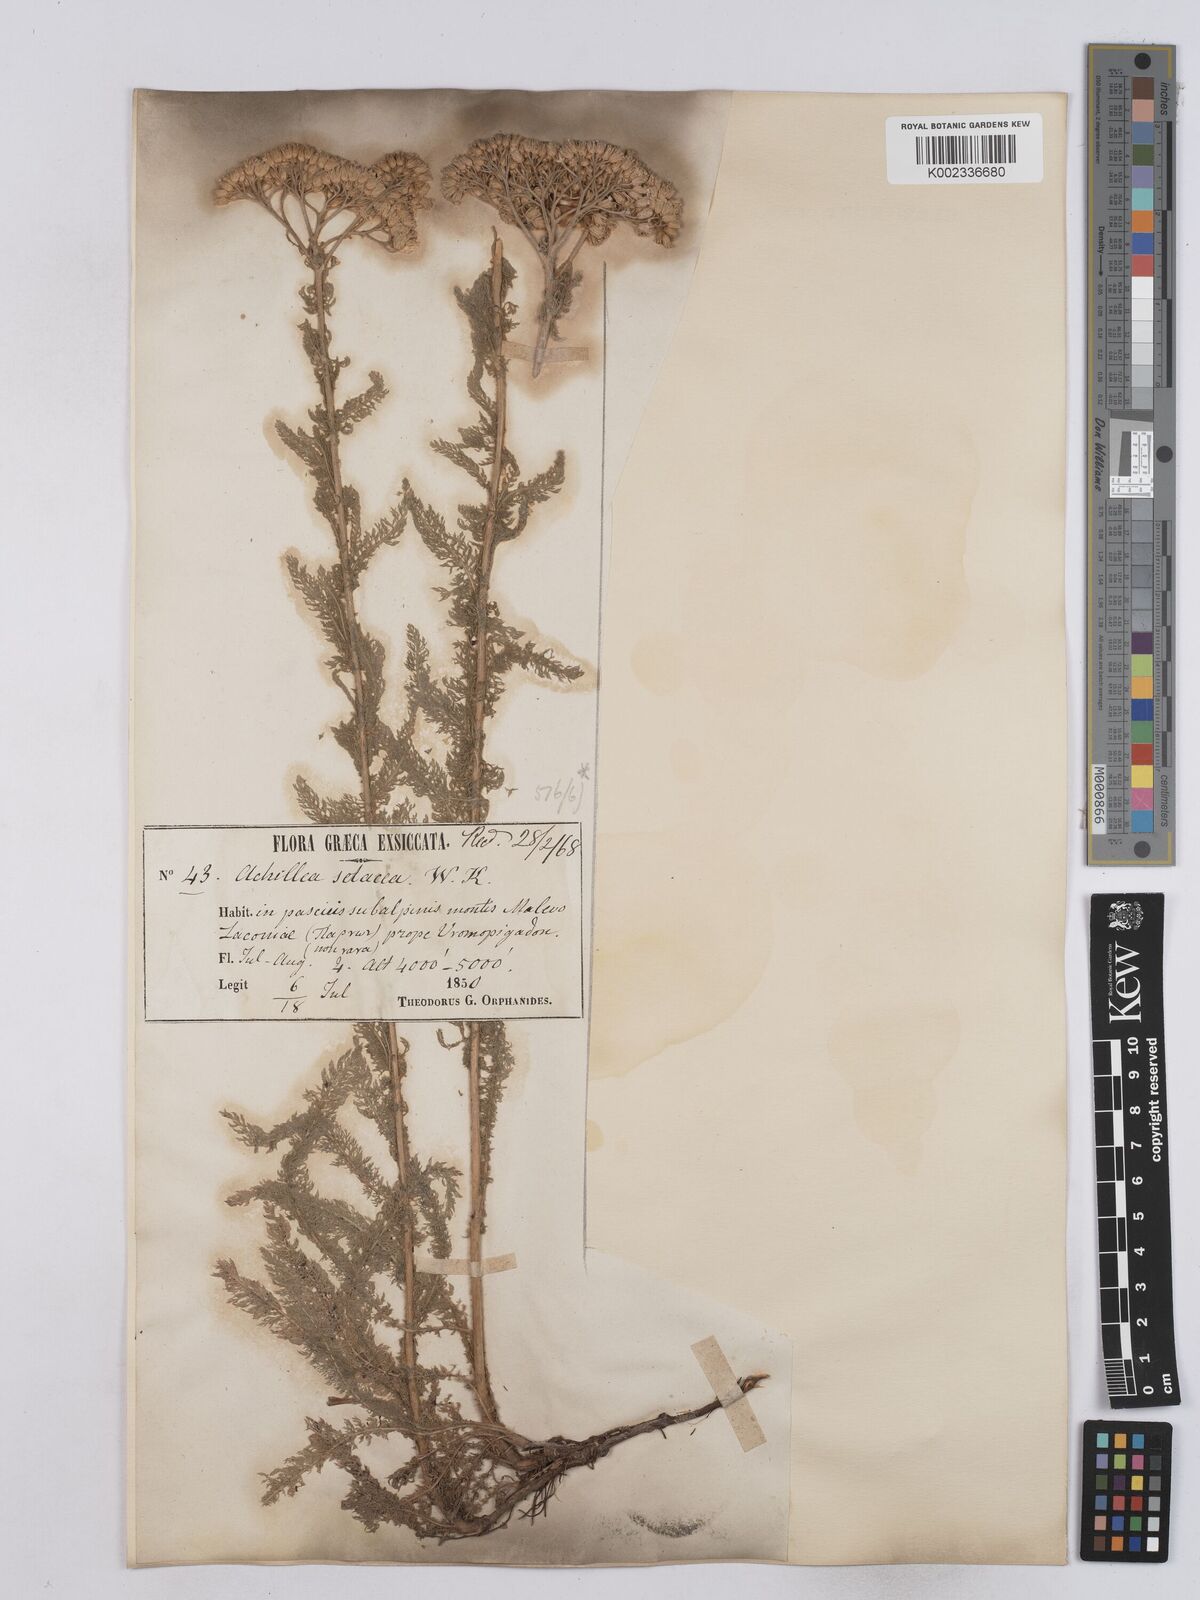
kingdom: Plantae
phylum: Tracheophyta
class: Magnoliopsida
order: Asterales
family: Asteraceae
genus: Achillea
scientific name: Achillea setacea
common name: Bristly yarrow
